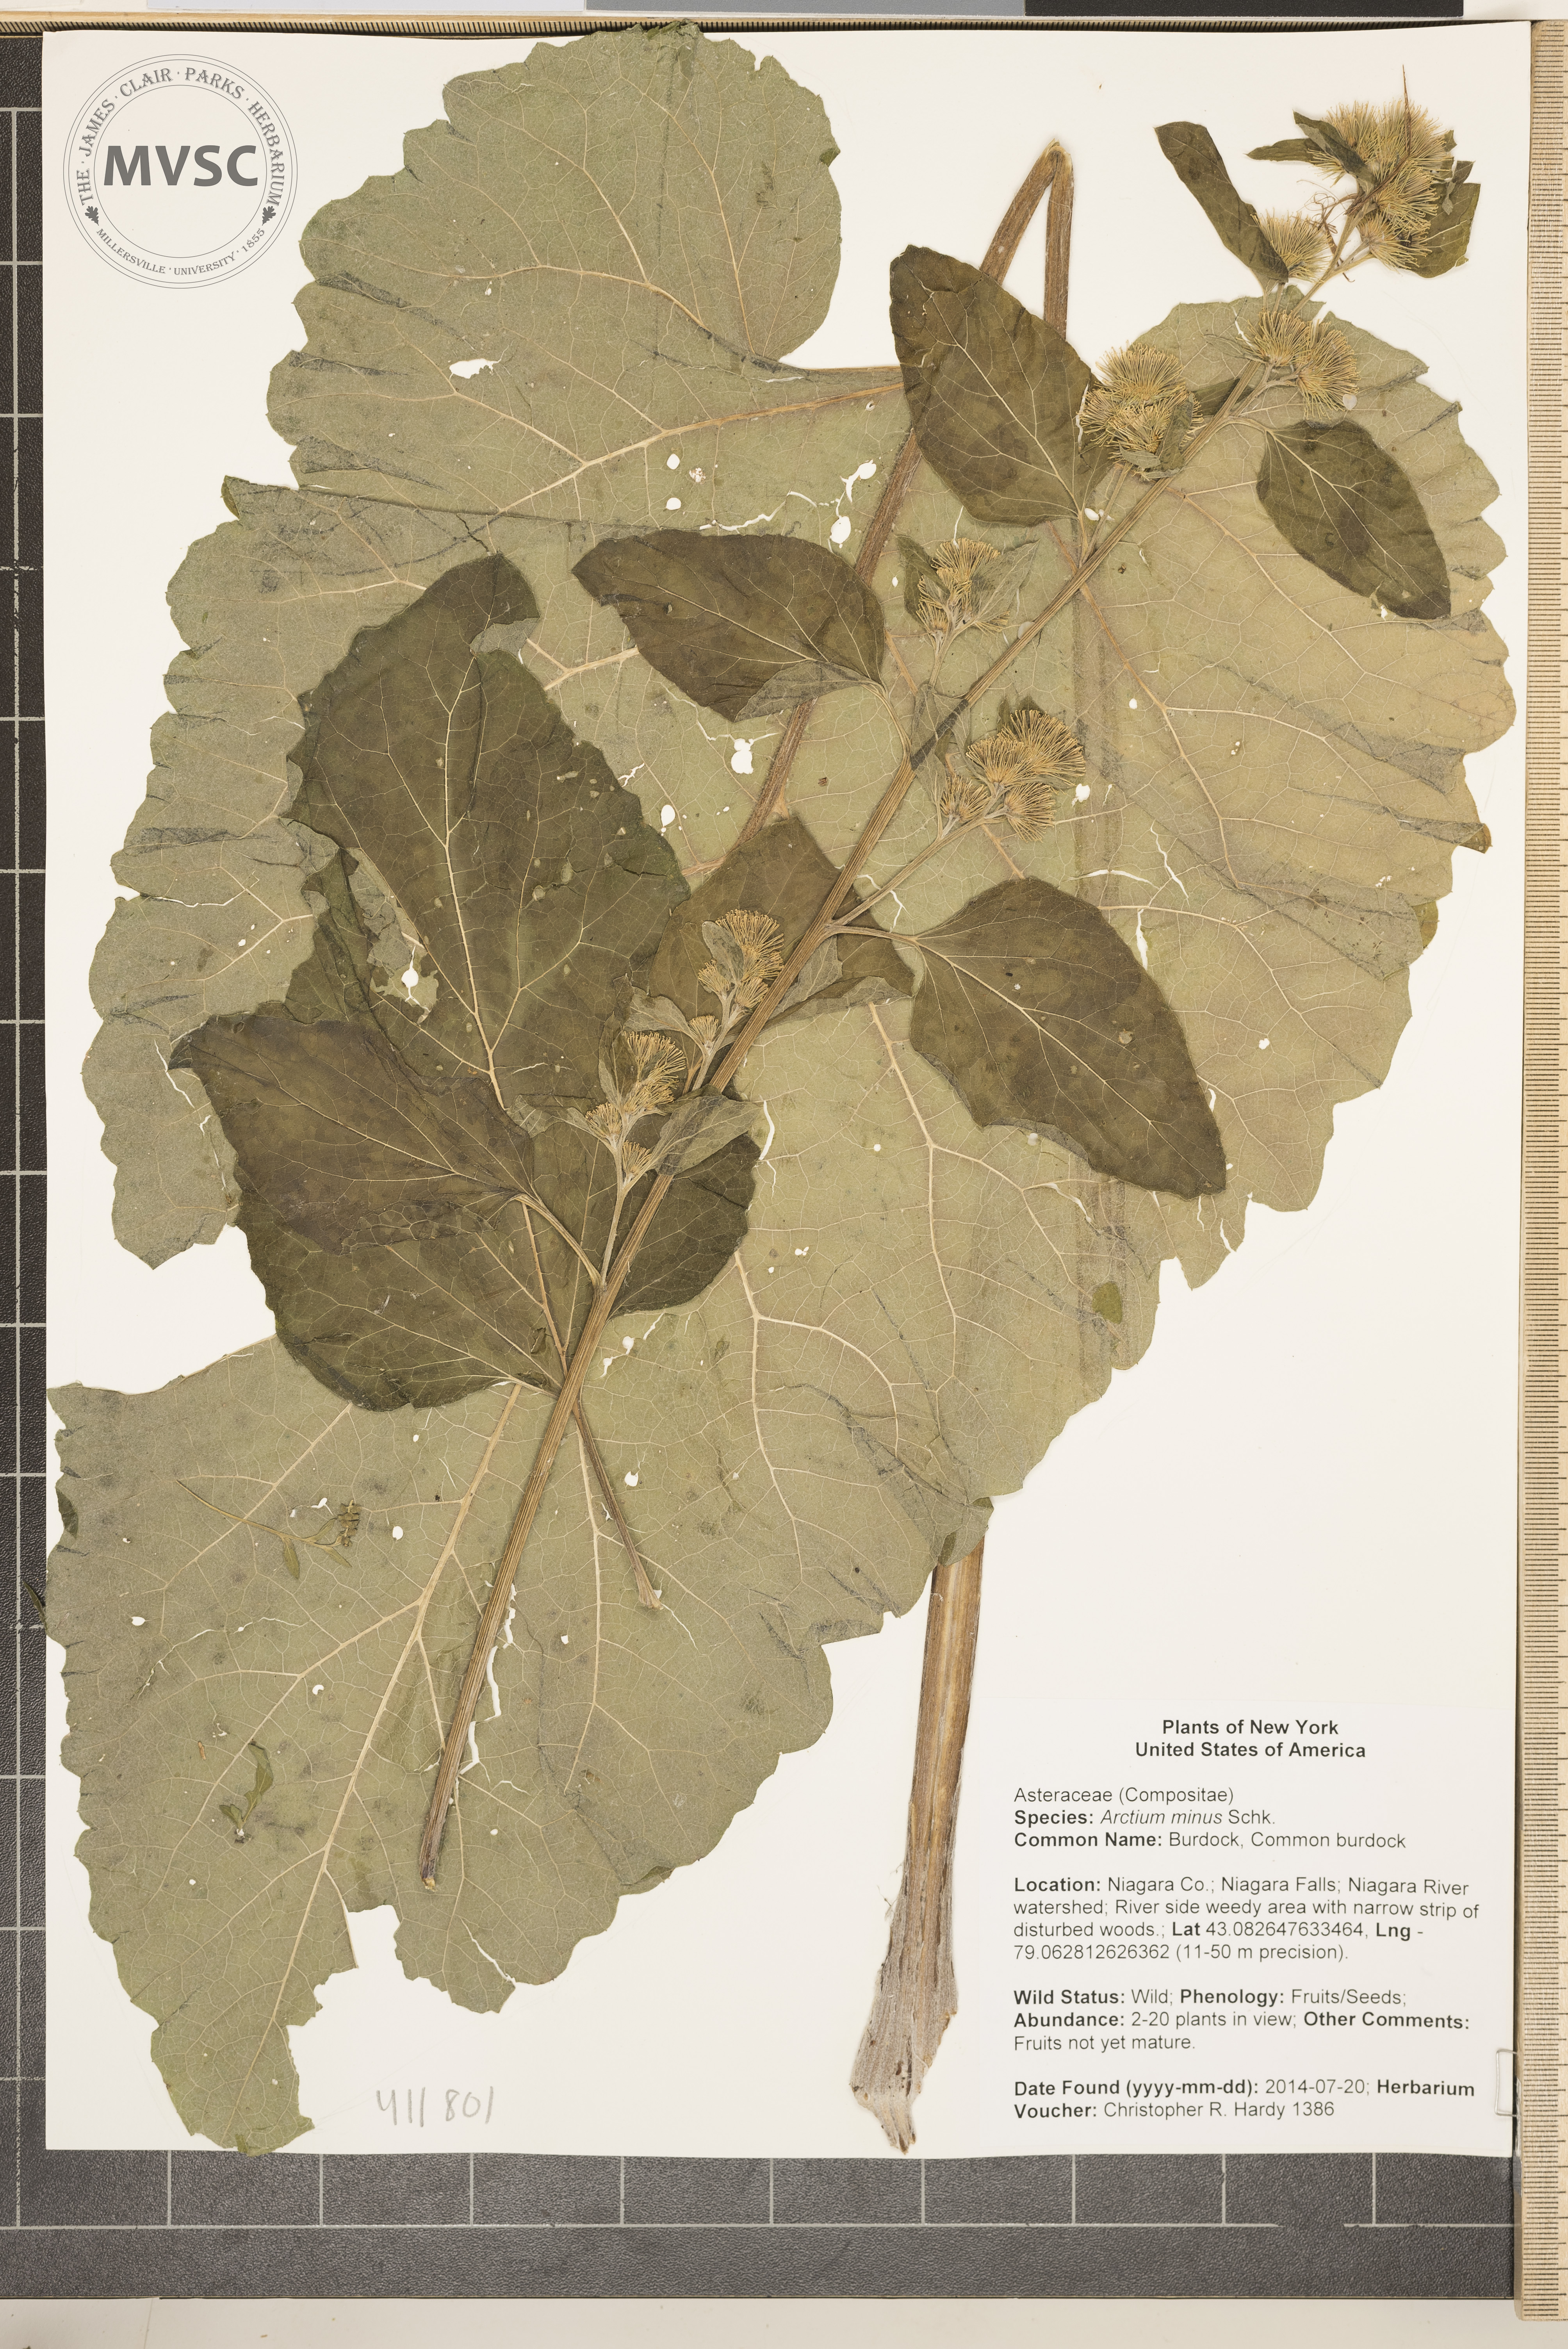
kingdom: Plantae
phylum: Tracheophyta
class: Magnoliopsida
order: Asterales
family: Asteraceae
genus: Arctium
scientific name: Arctium minus
